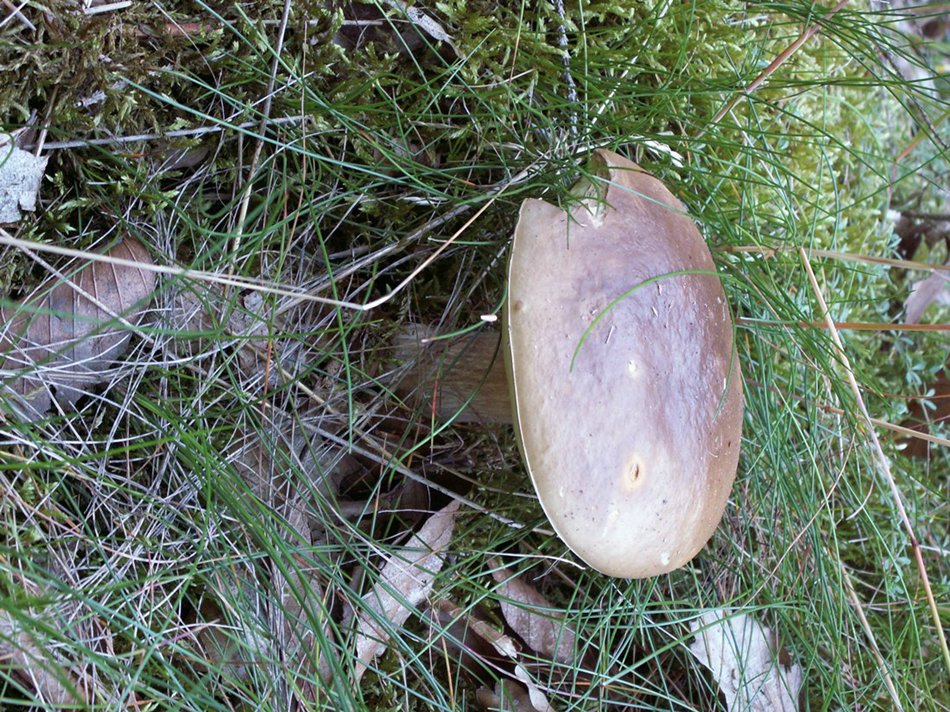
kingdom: Fungi
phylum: Basidiomycota
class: Agaricomycetes
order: Boletales
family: Boletaceae
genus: Boletus
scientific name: Boletus edulis
